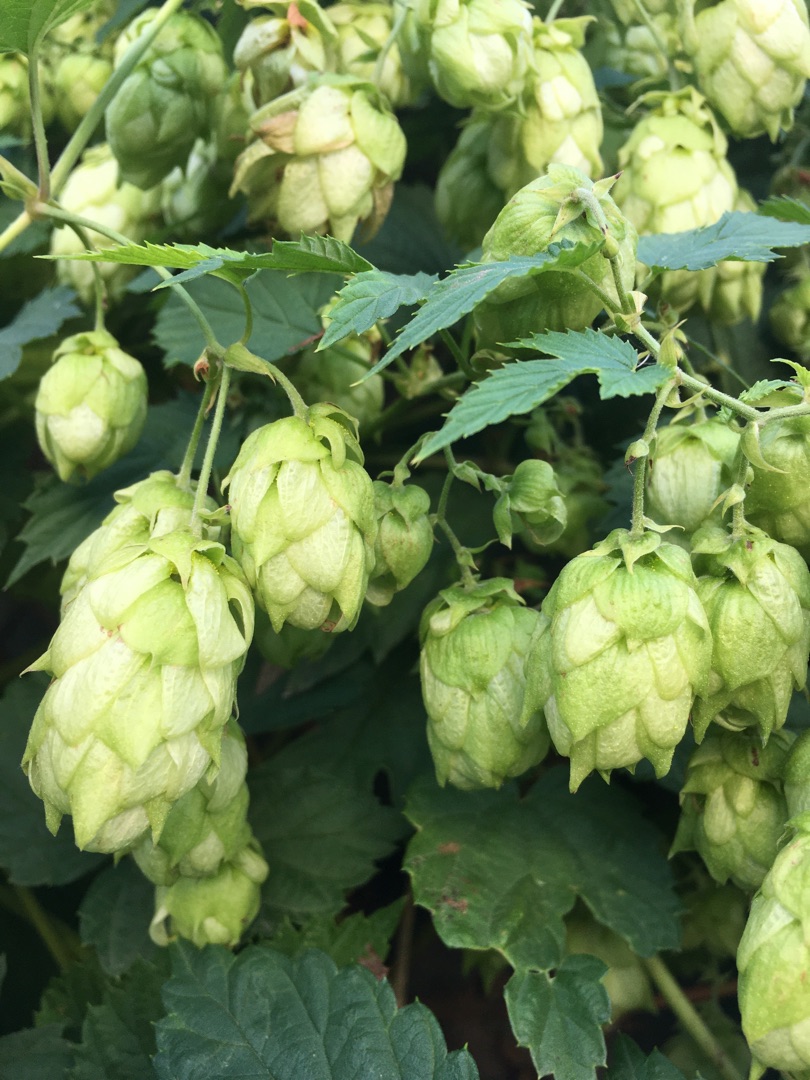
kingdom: Plantae
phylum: Tracheophyta
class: Magnoliopsida
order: Rosales
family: Cannabaceae
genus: Humulus
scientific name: Humulus lupulus
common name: Humle
